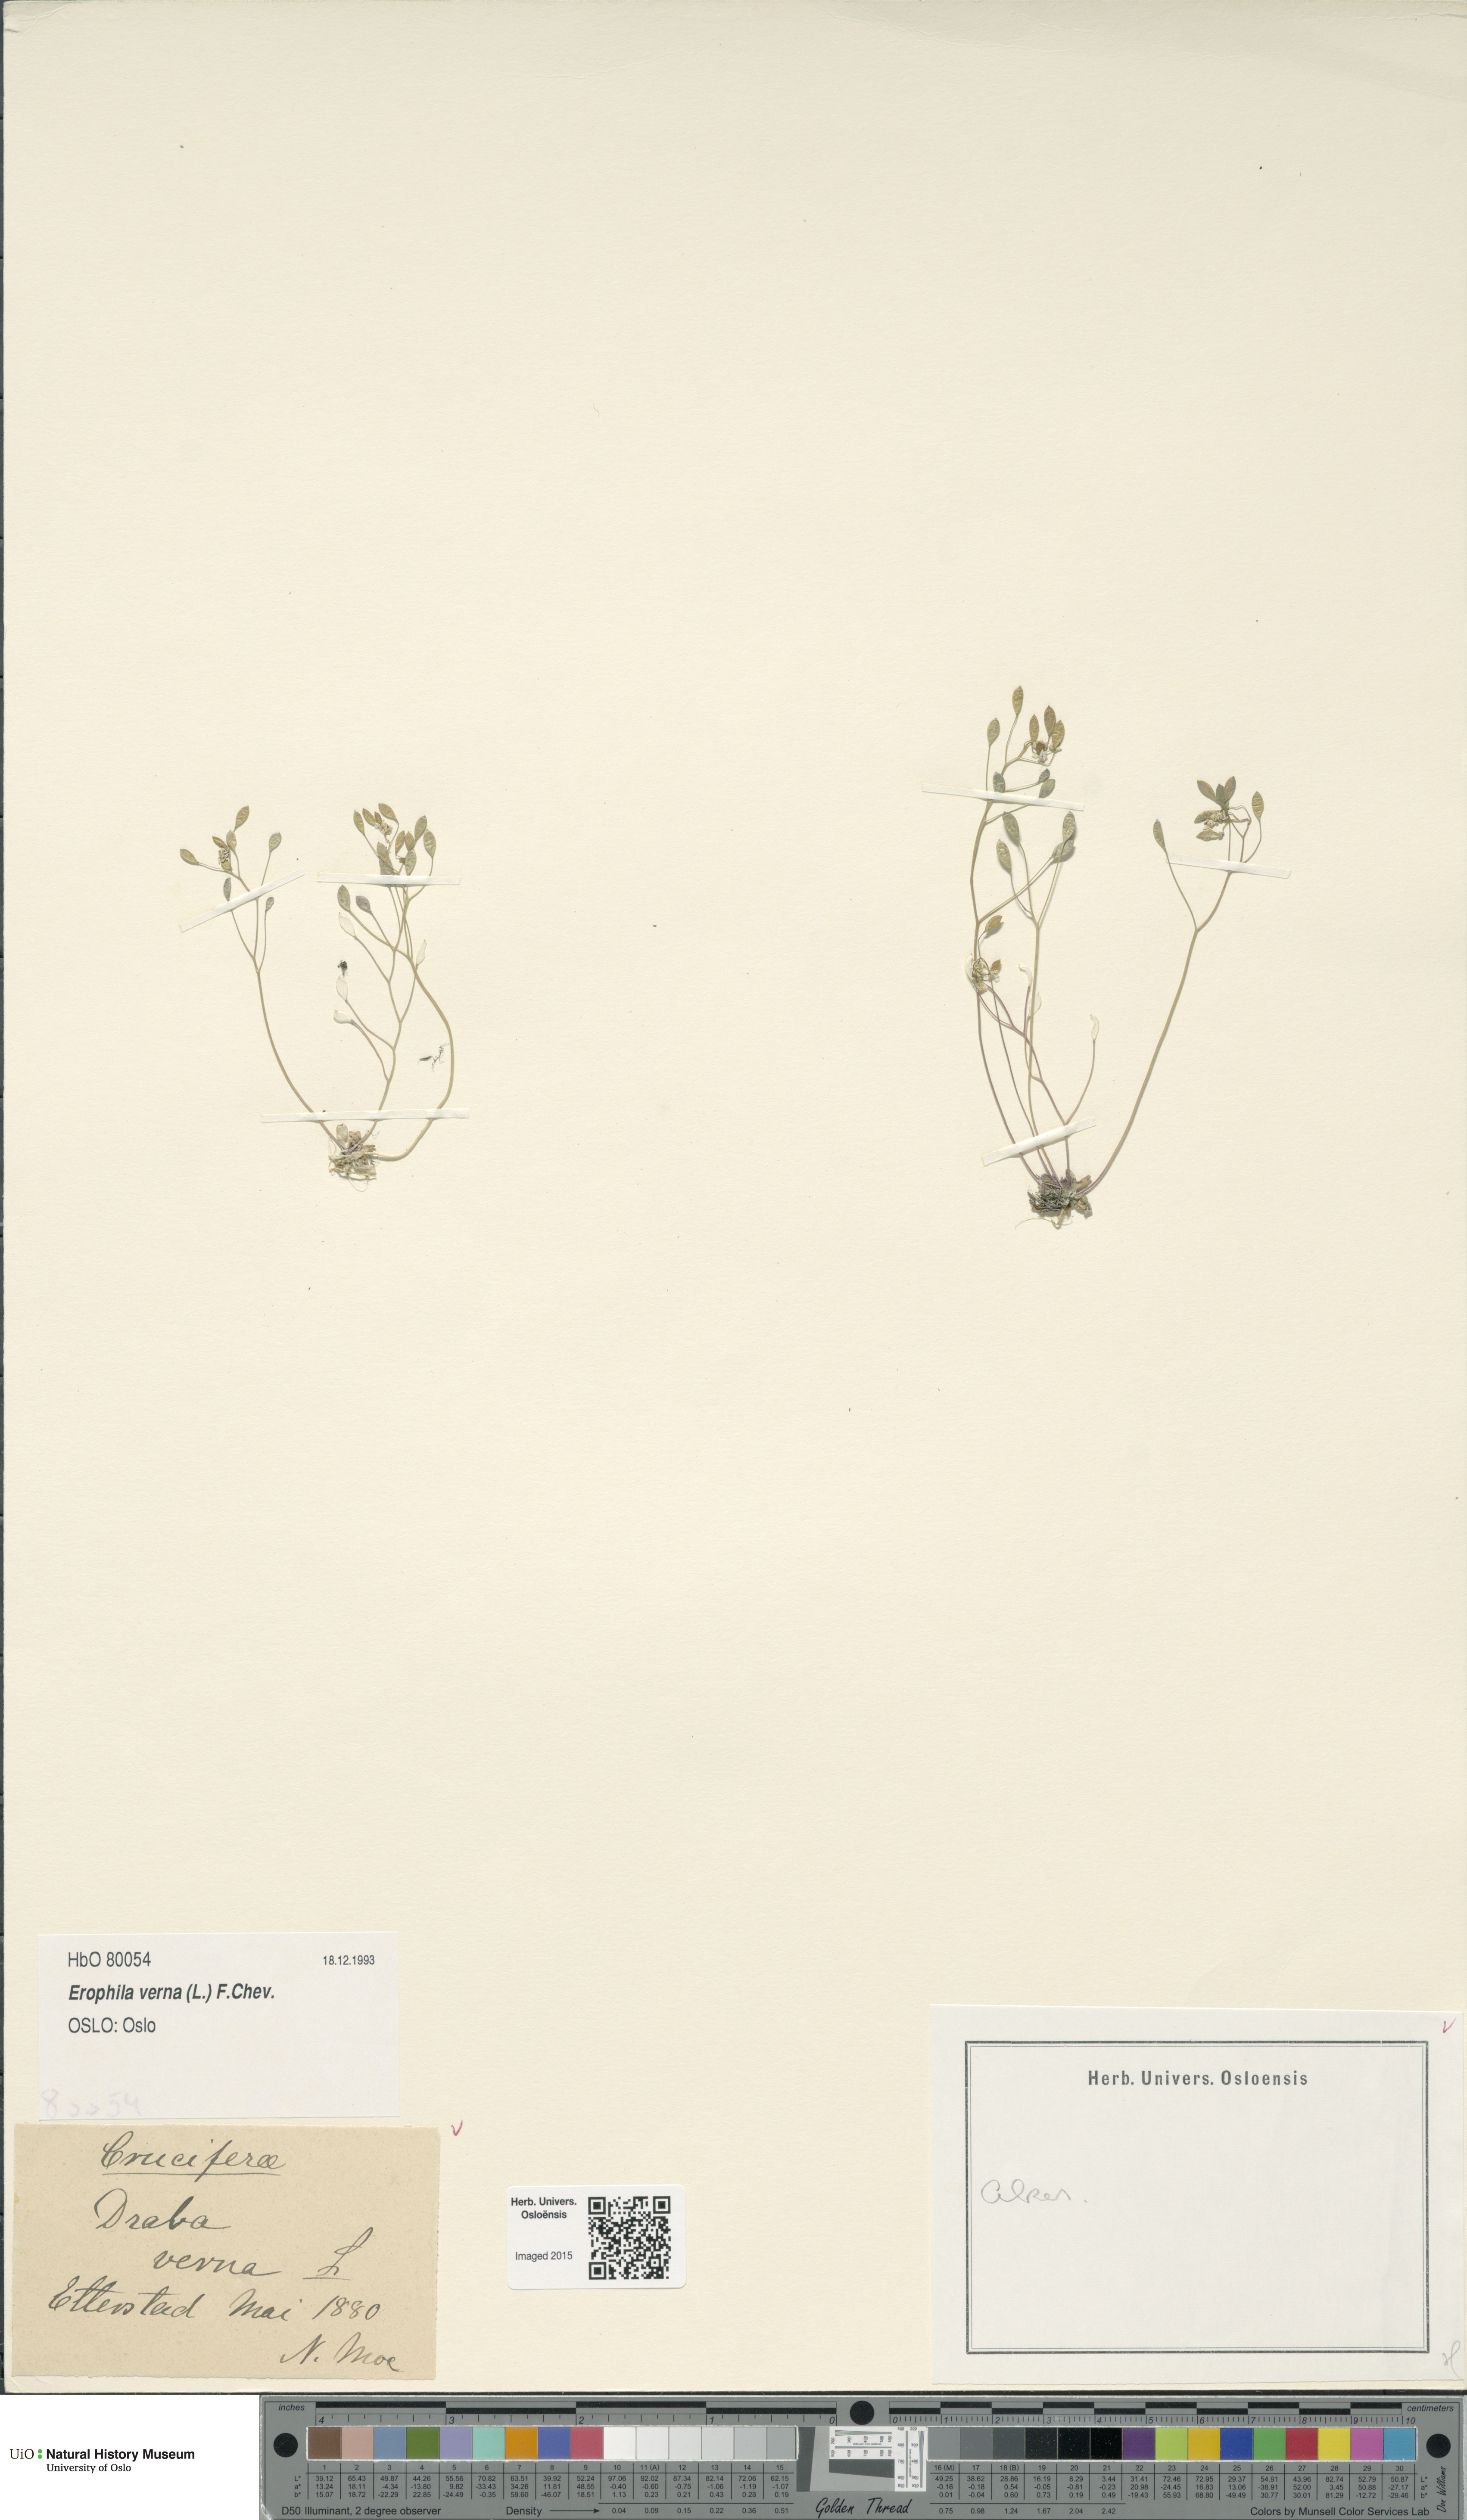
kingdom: Plantae
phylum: Tracheophyta
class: Magnoliopsida
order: Brassicales
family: Brassicaceae
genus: Draba
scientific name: Draba verna
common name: Spring draba
